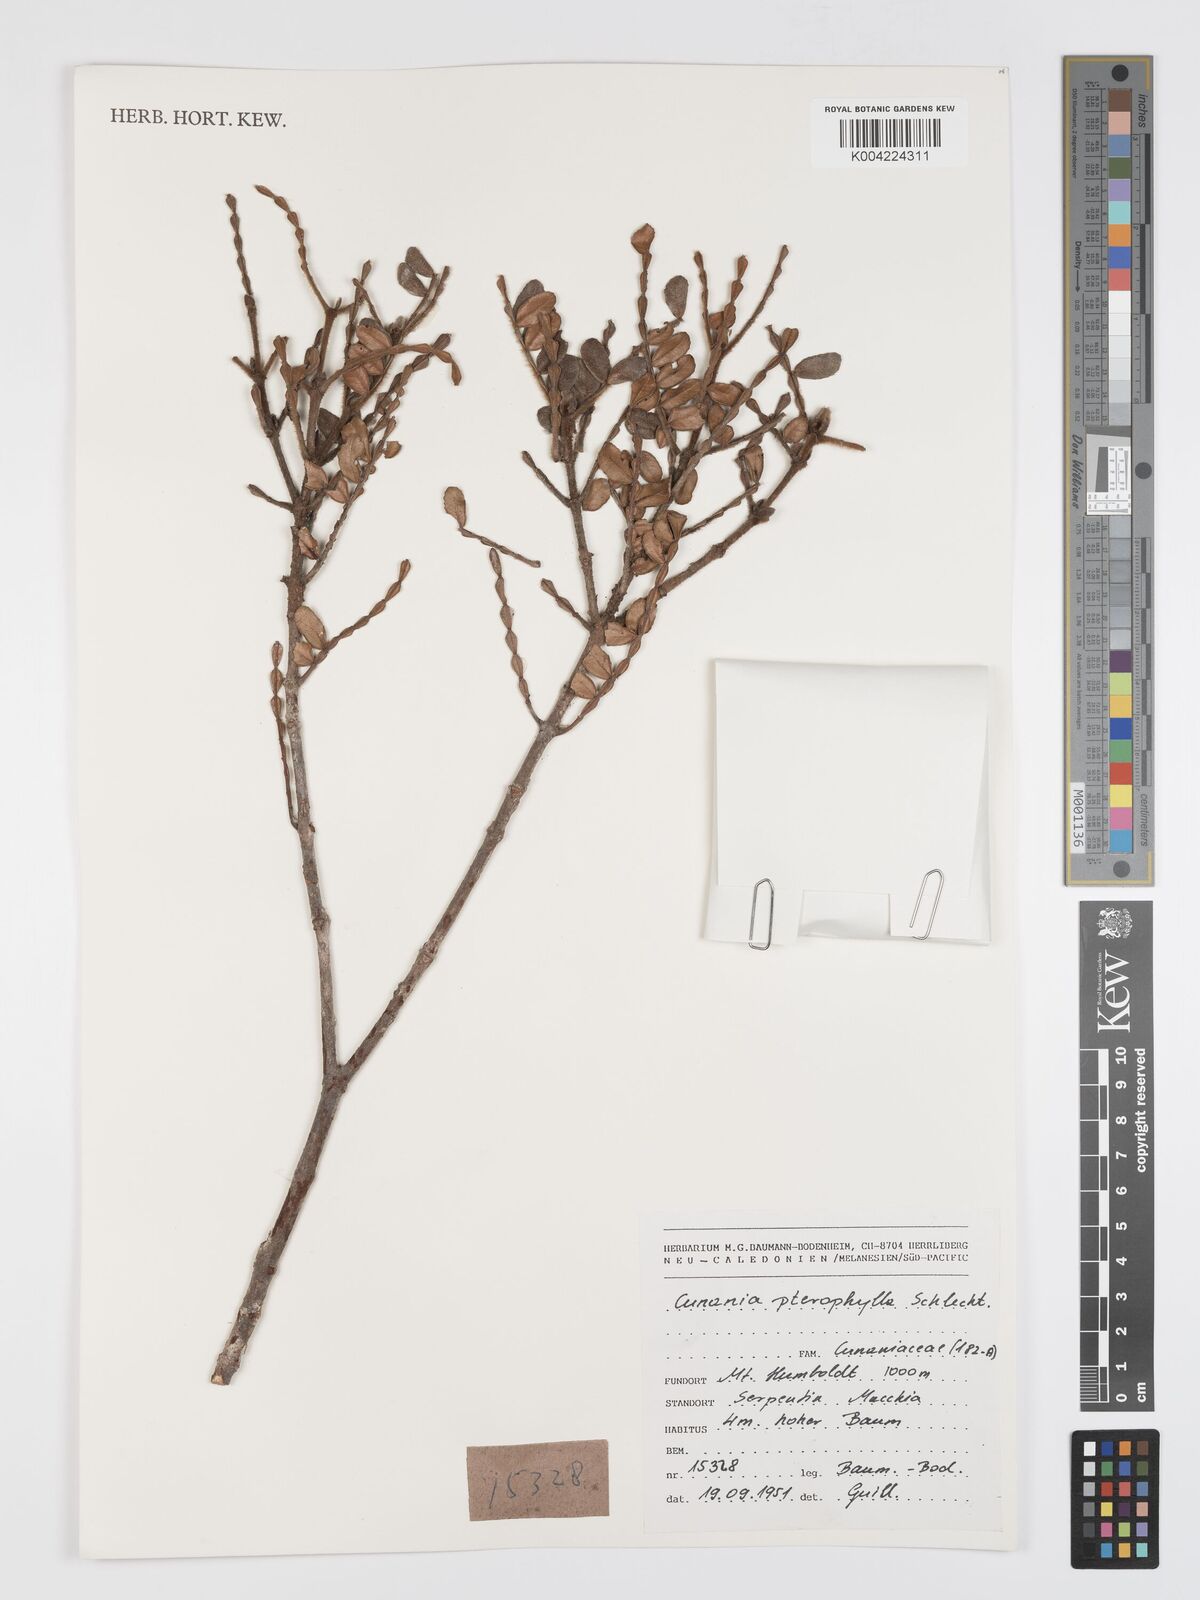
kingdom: Plantae
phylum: Tracheophyta
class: Magnoliopsida
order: Oxalidales
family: Cunoniaceae
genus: Cunonia
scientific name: Cunonia pterophylla
